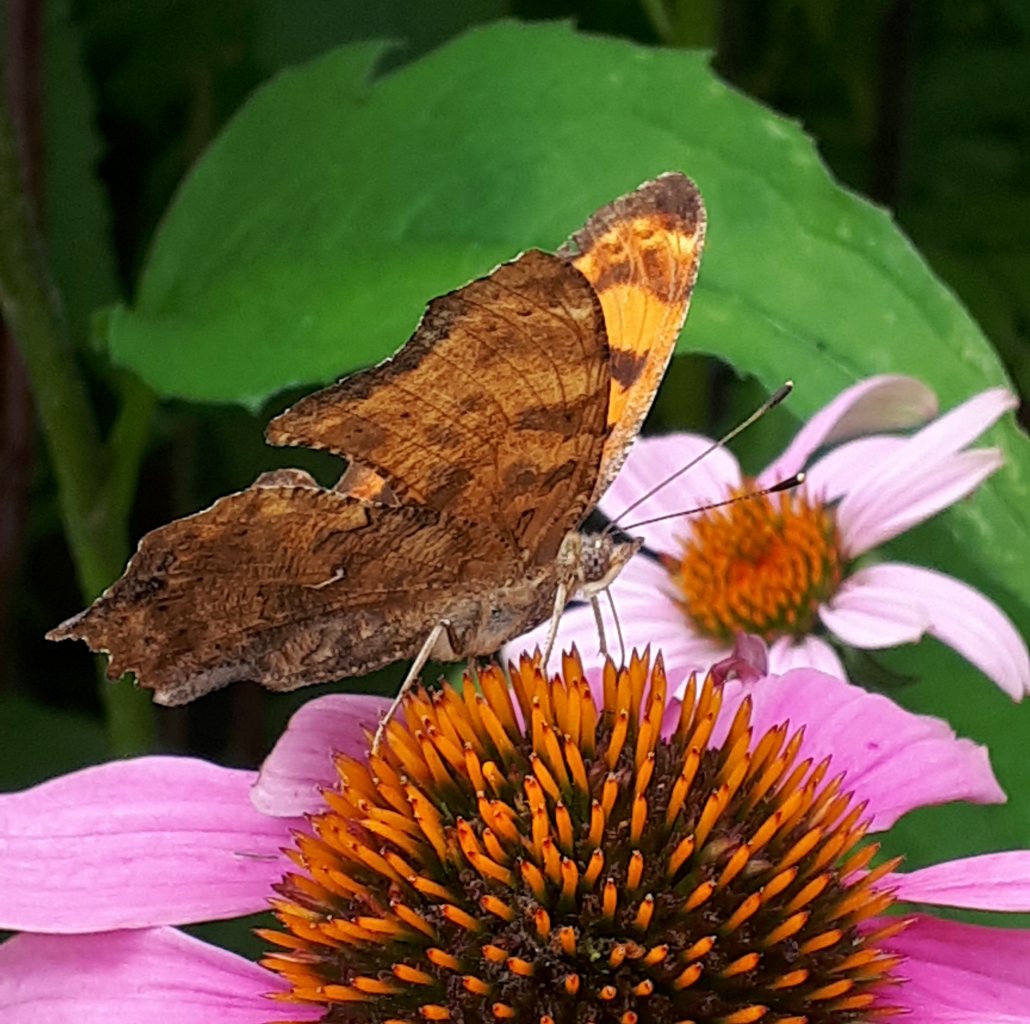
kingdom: Animalia
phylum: Arthropoda
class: Insecta
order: Lepidoptera
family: Nymphalidae
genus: Polygonia
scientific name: Polygonia comma
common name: Eastern Comma
